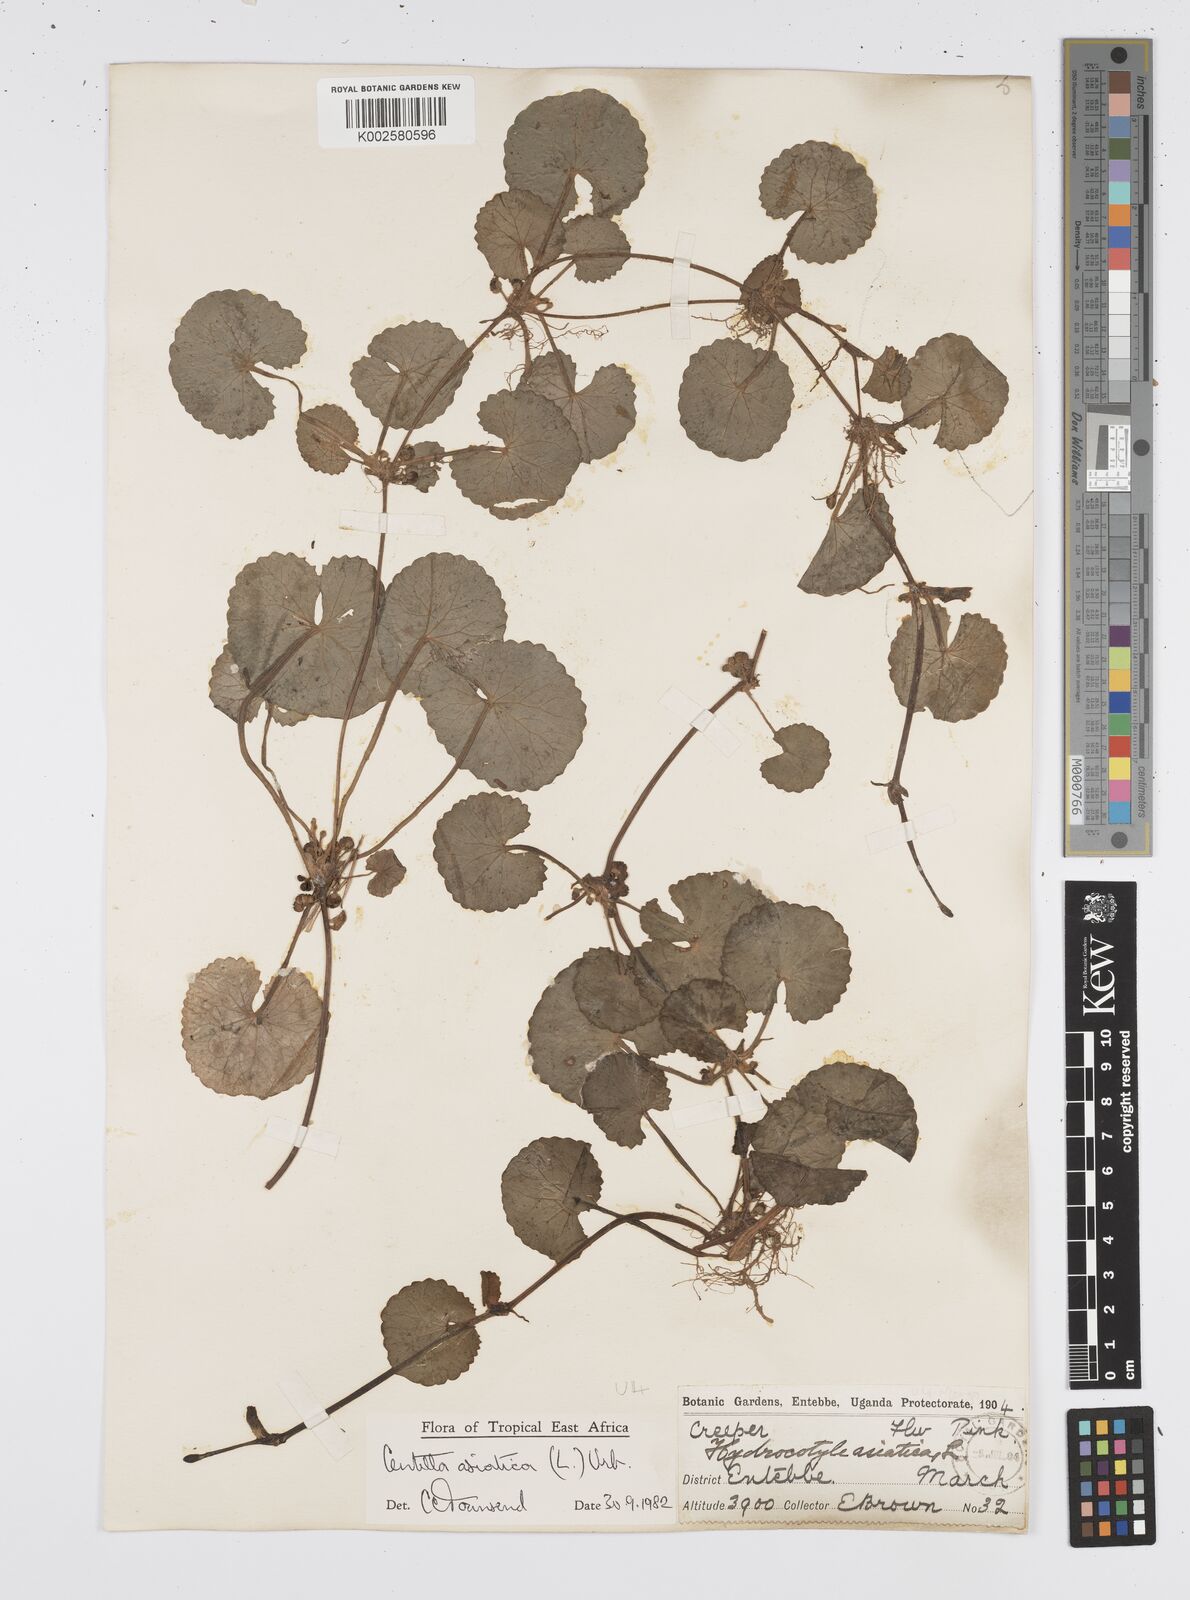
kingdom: Plantae
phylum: Tracheophyta
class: Magnoliopsida
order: Apiales
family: Apiaceae
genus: Centella
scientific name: Centella asiatica
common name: Spadeleaf
